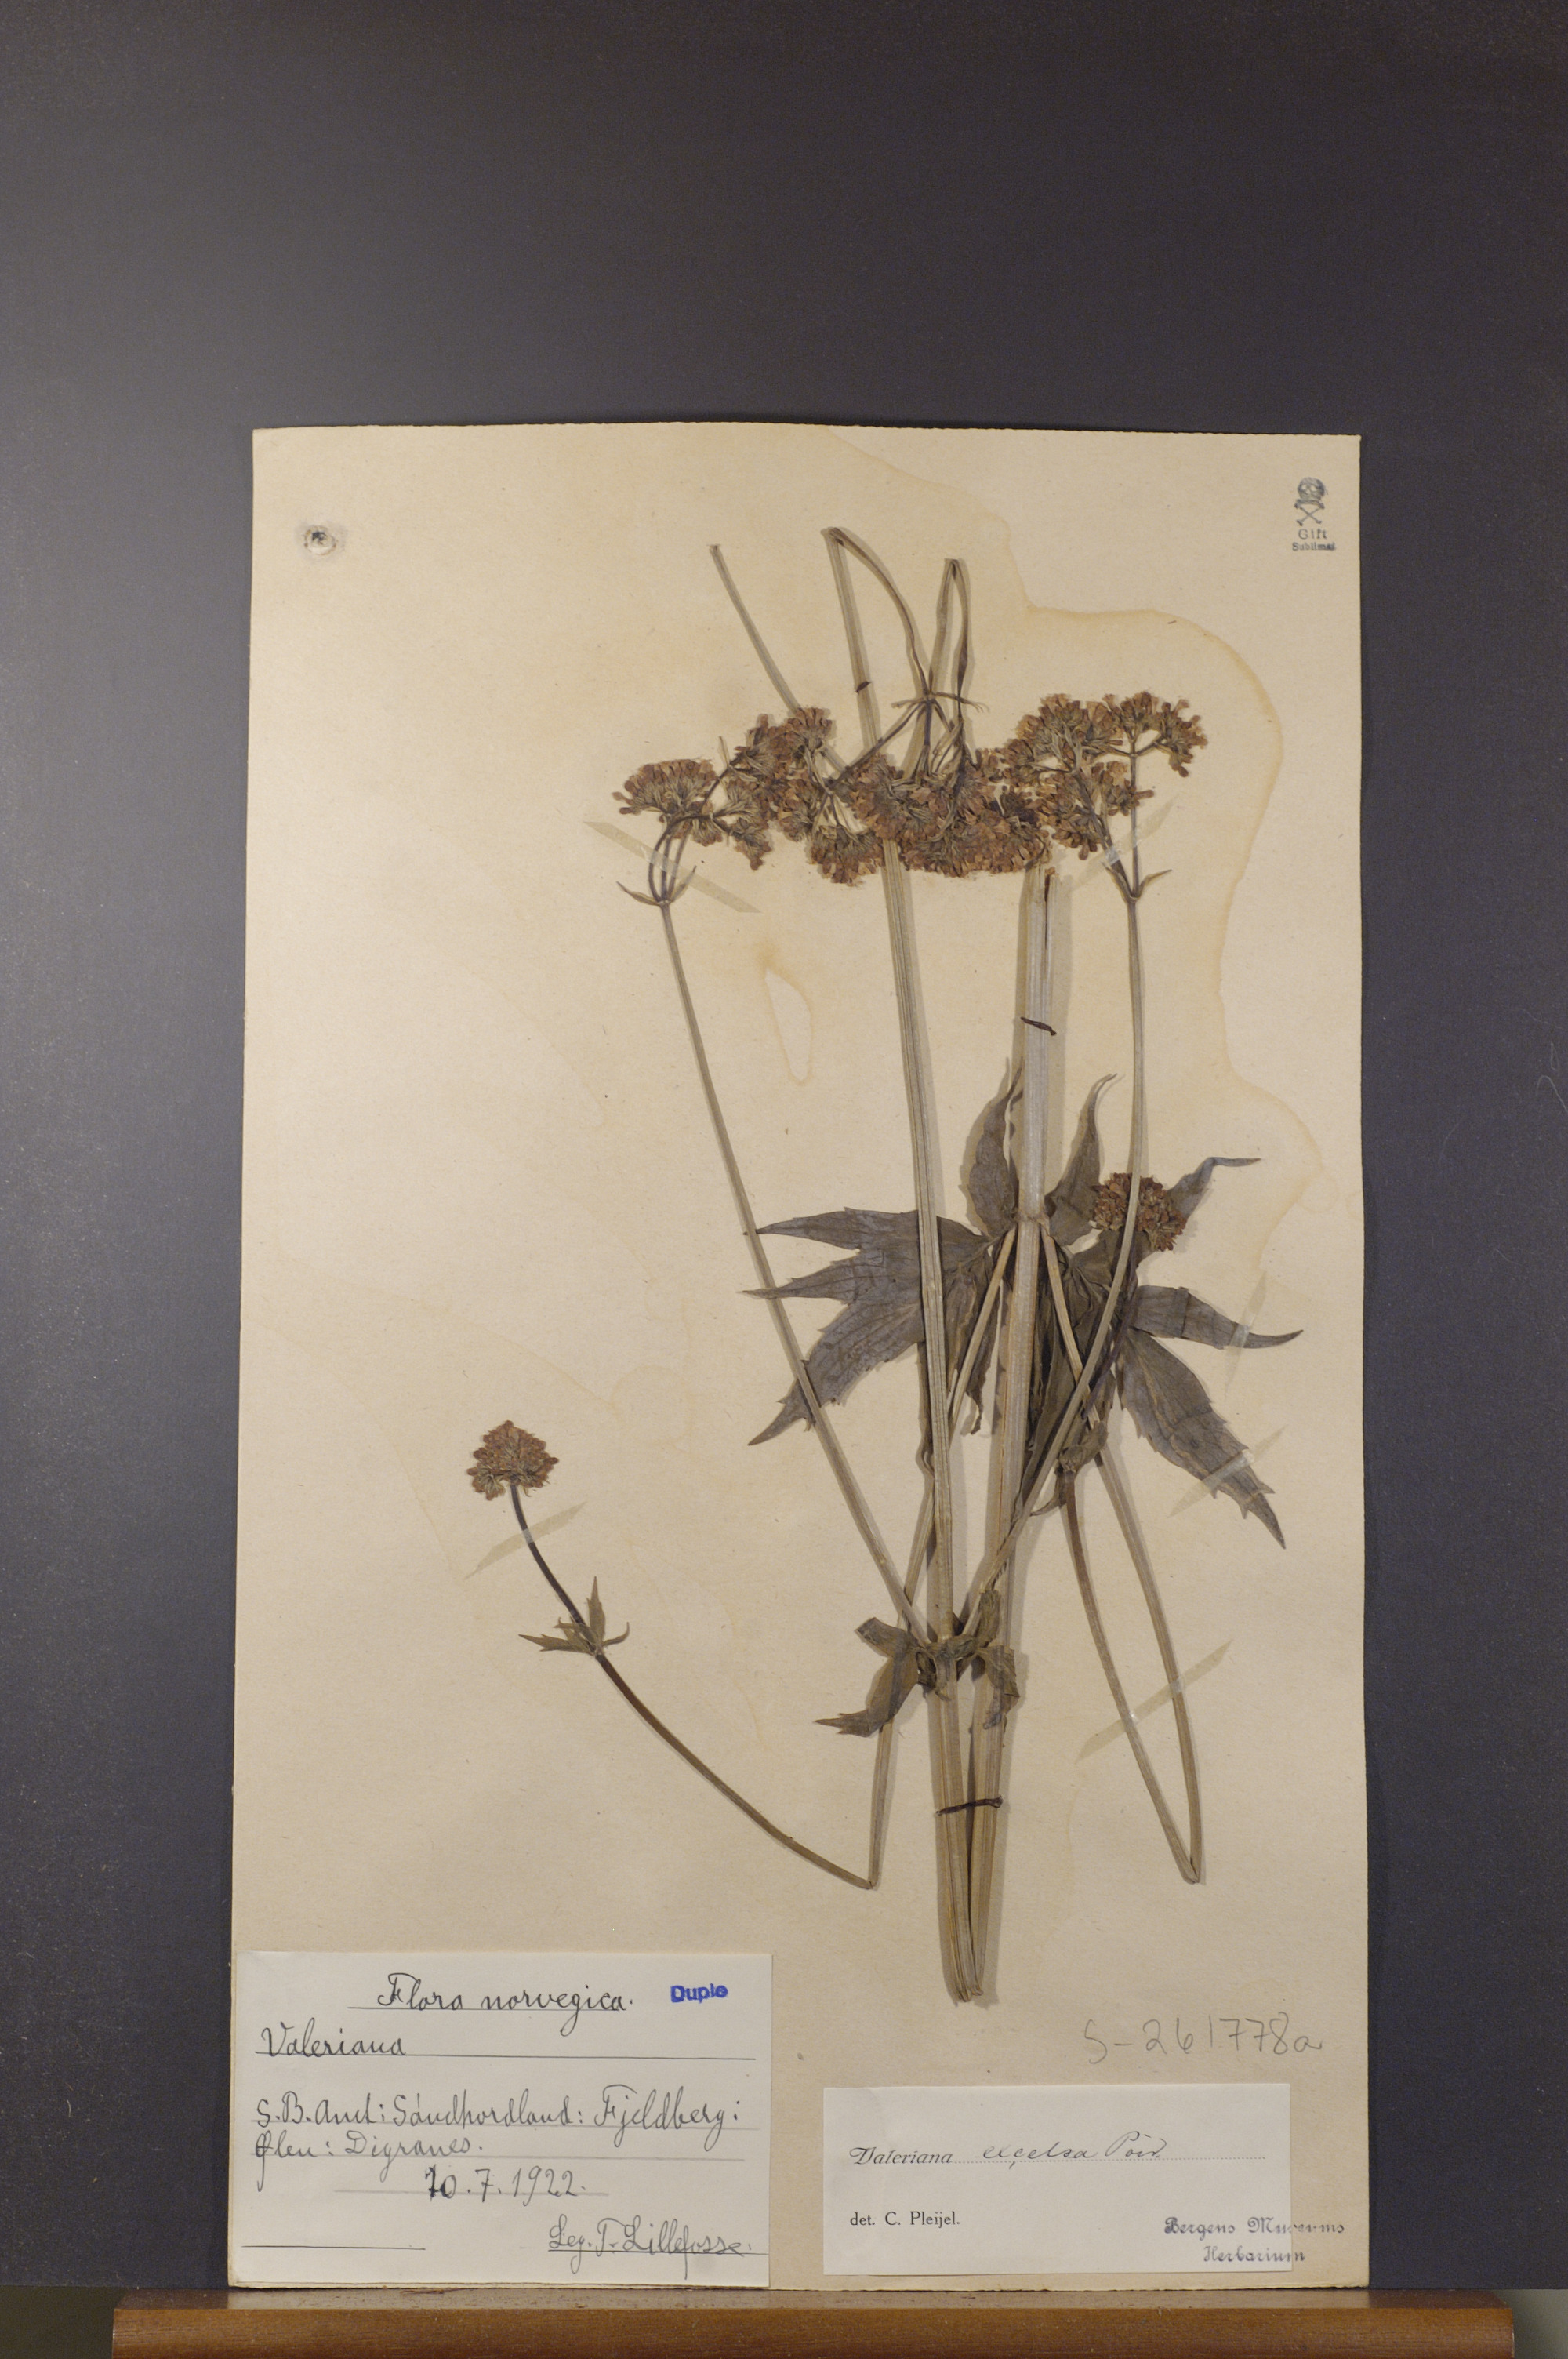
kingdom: Plantae
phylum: Tracheophyta
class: Magnoliopsida
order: Dipsacales
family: Caprifoliaceae
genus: Valeriana
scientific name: Valeriana sambucifolia
